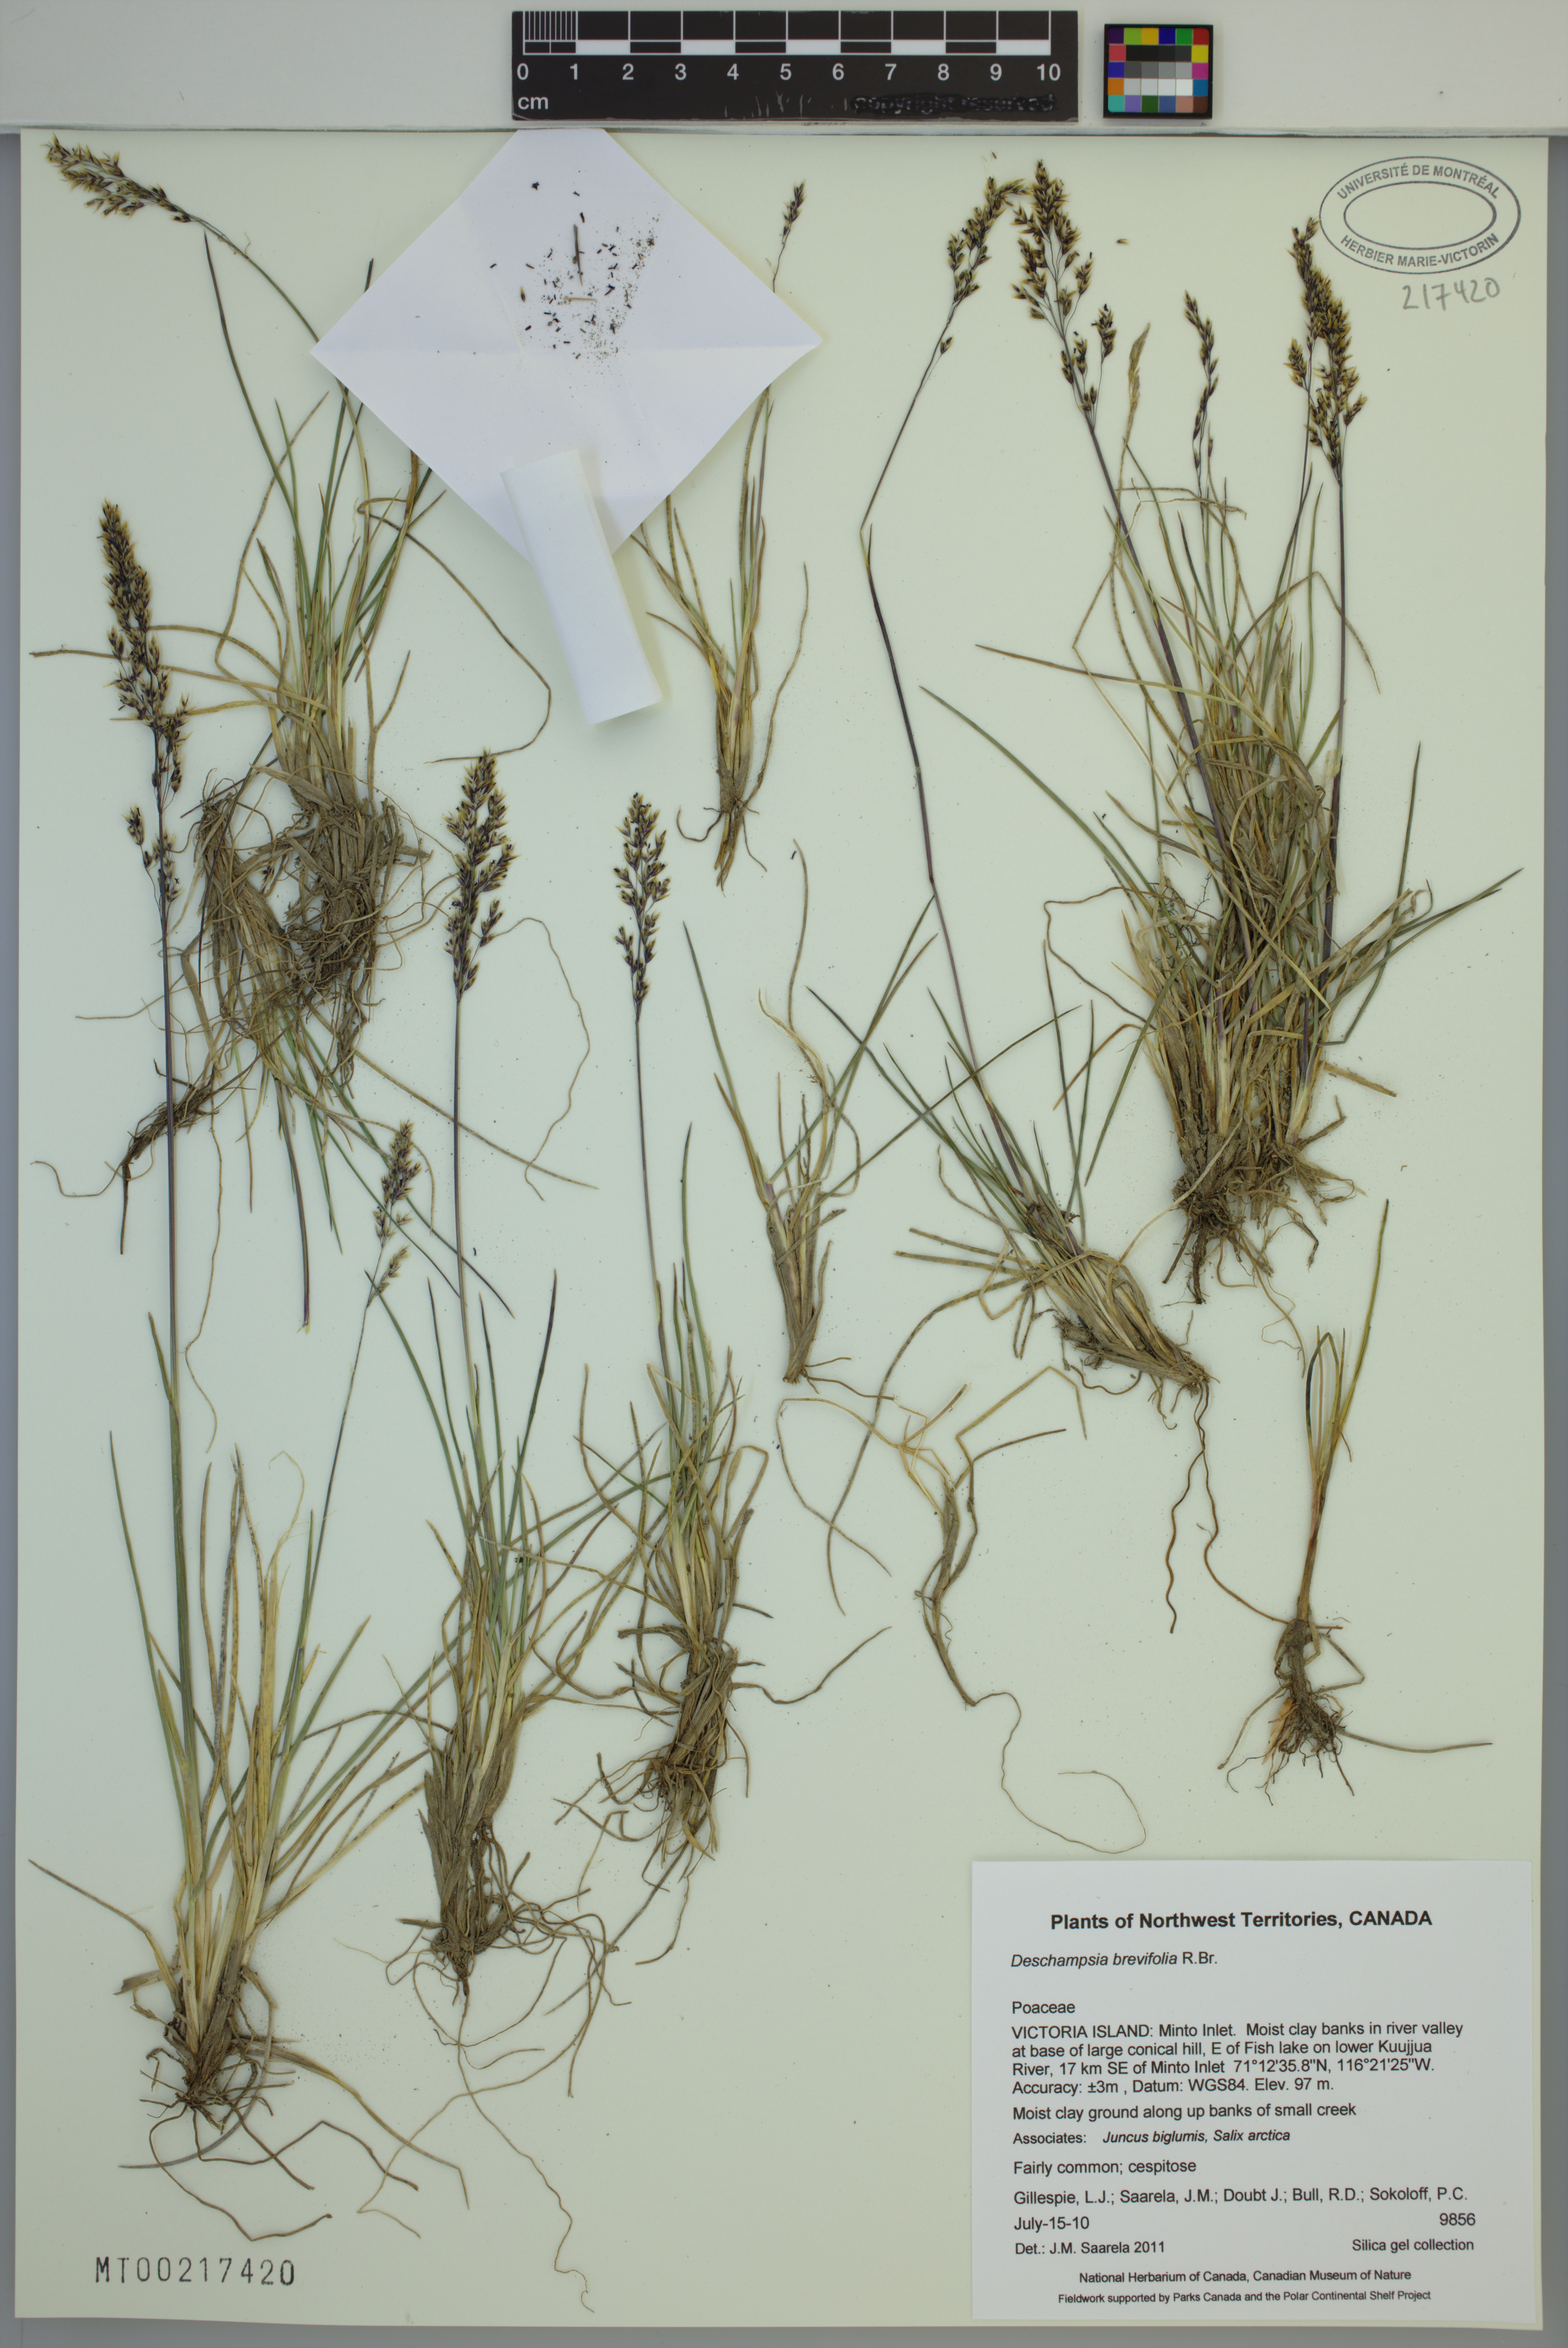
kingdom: Plantae
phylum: Tracheophyta
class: Liliopsida
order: Poales
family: Poaceae
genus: Deschampsia
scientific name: Deschampsia cespitosa
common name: Tufted hair-grass
